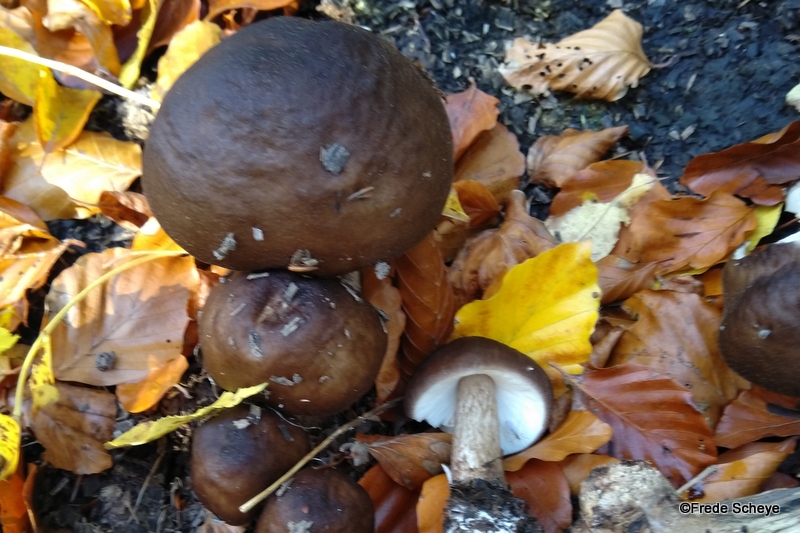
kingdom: Fungi
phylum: Basidiomycota
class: Agaricomycetes
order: Agaricales
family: Pluteaceae
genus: Pluteus
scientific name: Pluteus cervinus
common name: sodfarvet skærmhat
